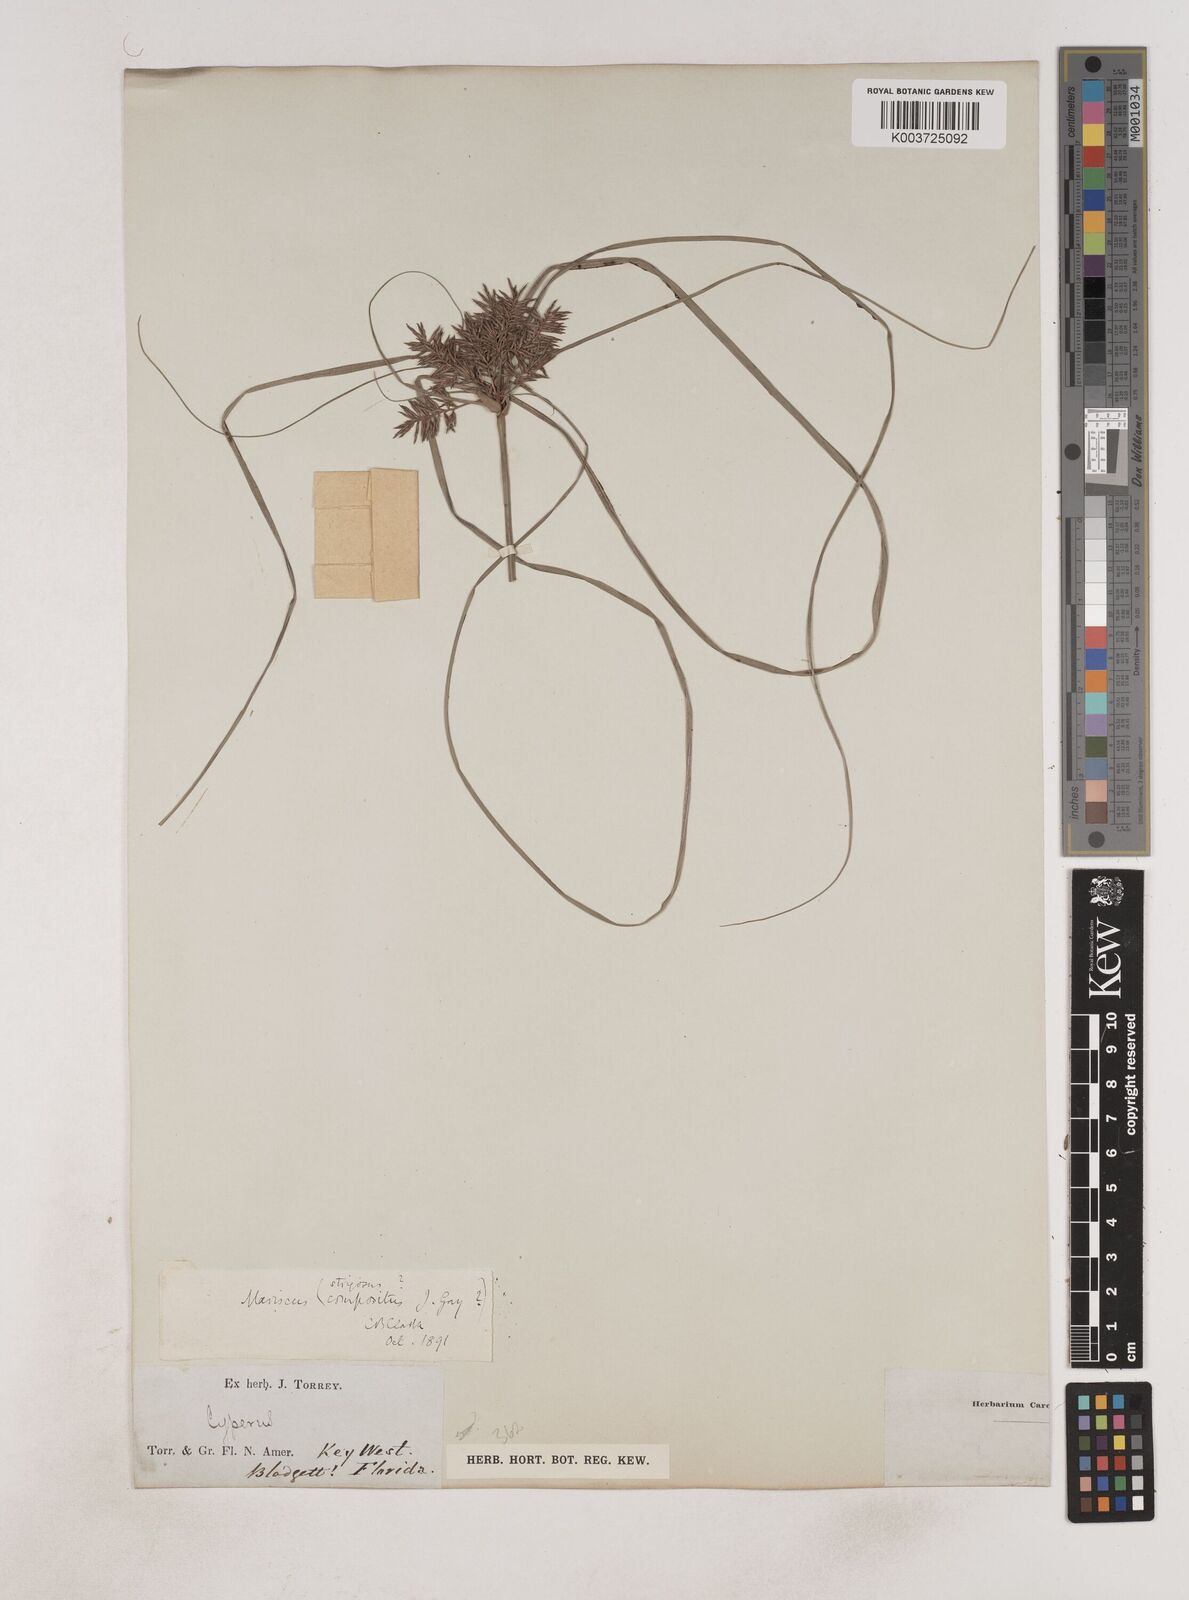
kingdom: Plantae
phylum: Tracheophyta
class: Liliopsida
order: Poales
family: Cyperaceae
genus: Cyperus
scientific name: Cyperus strigosus
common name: False nutsedge
